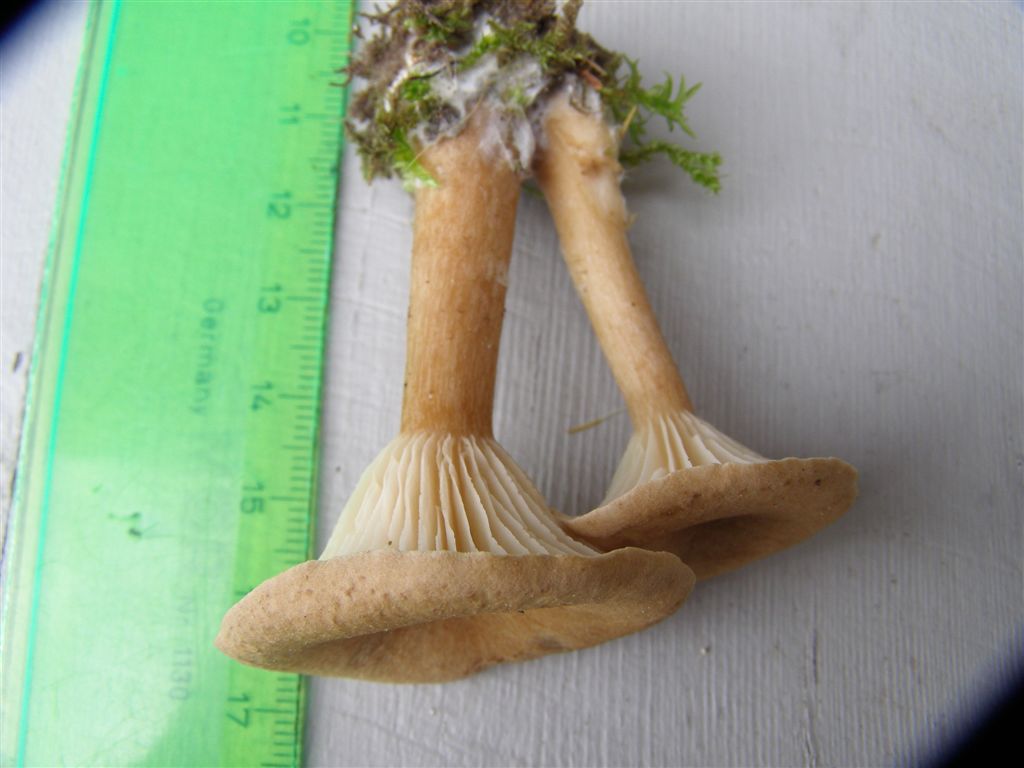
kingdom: Fungi
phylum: Basidiomycota
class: Agaricomycetes
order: Agaricales
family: Tricholomataceae
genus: Infundibulicybe
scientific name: Infundibulicybe squamulosa
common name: småskællet tragthat
